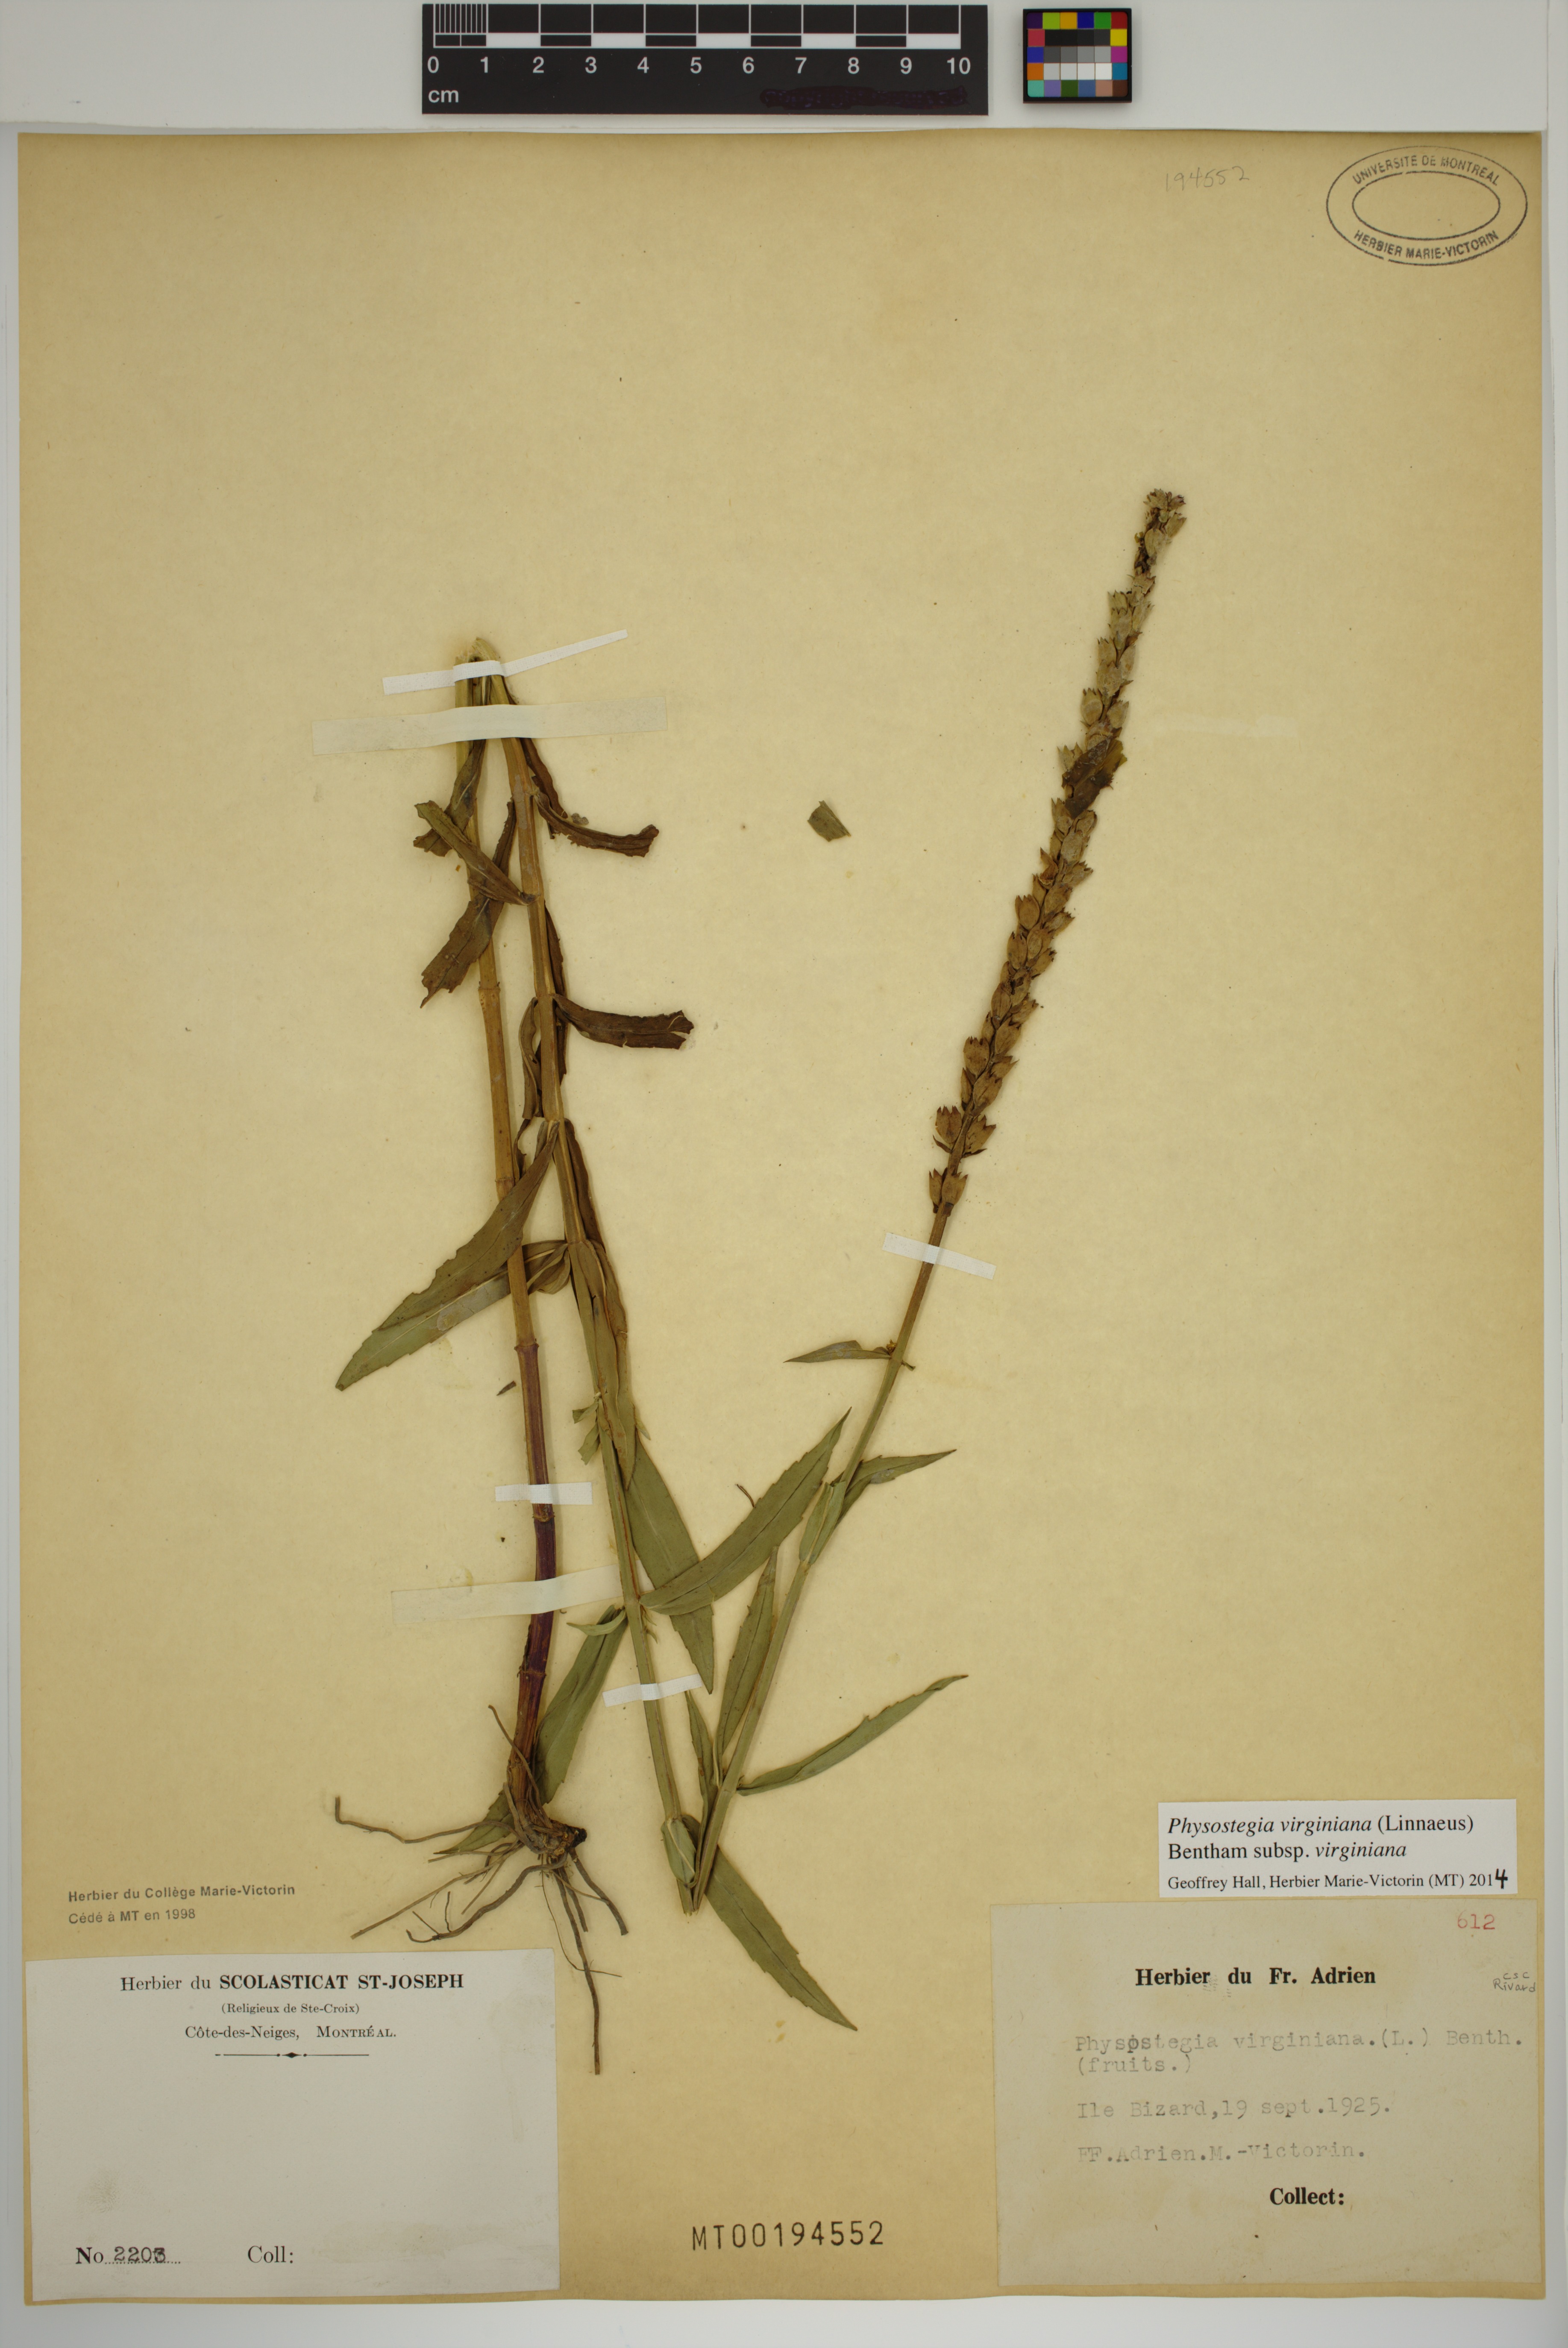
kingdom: Plantae
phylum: Tracheophyta
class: Magnoliopsida
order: Lamiales
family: Lamiaceae
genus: Physostegia
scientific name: Physostegia virginiana
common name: Obedient-plant
